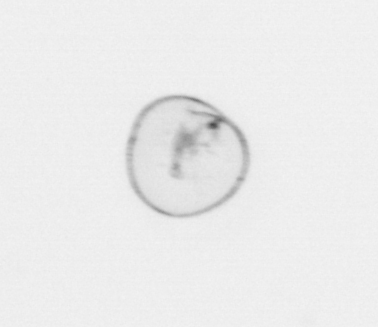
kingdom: Chromista
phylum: Myzozoa
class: Dinophyceae
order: Noctilucales
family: Noctilucaceae
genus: Noctiluca
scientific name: Noctiluca scintillans
